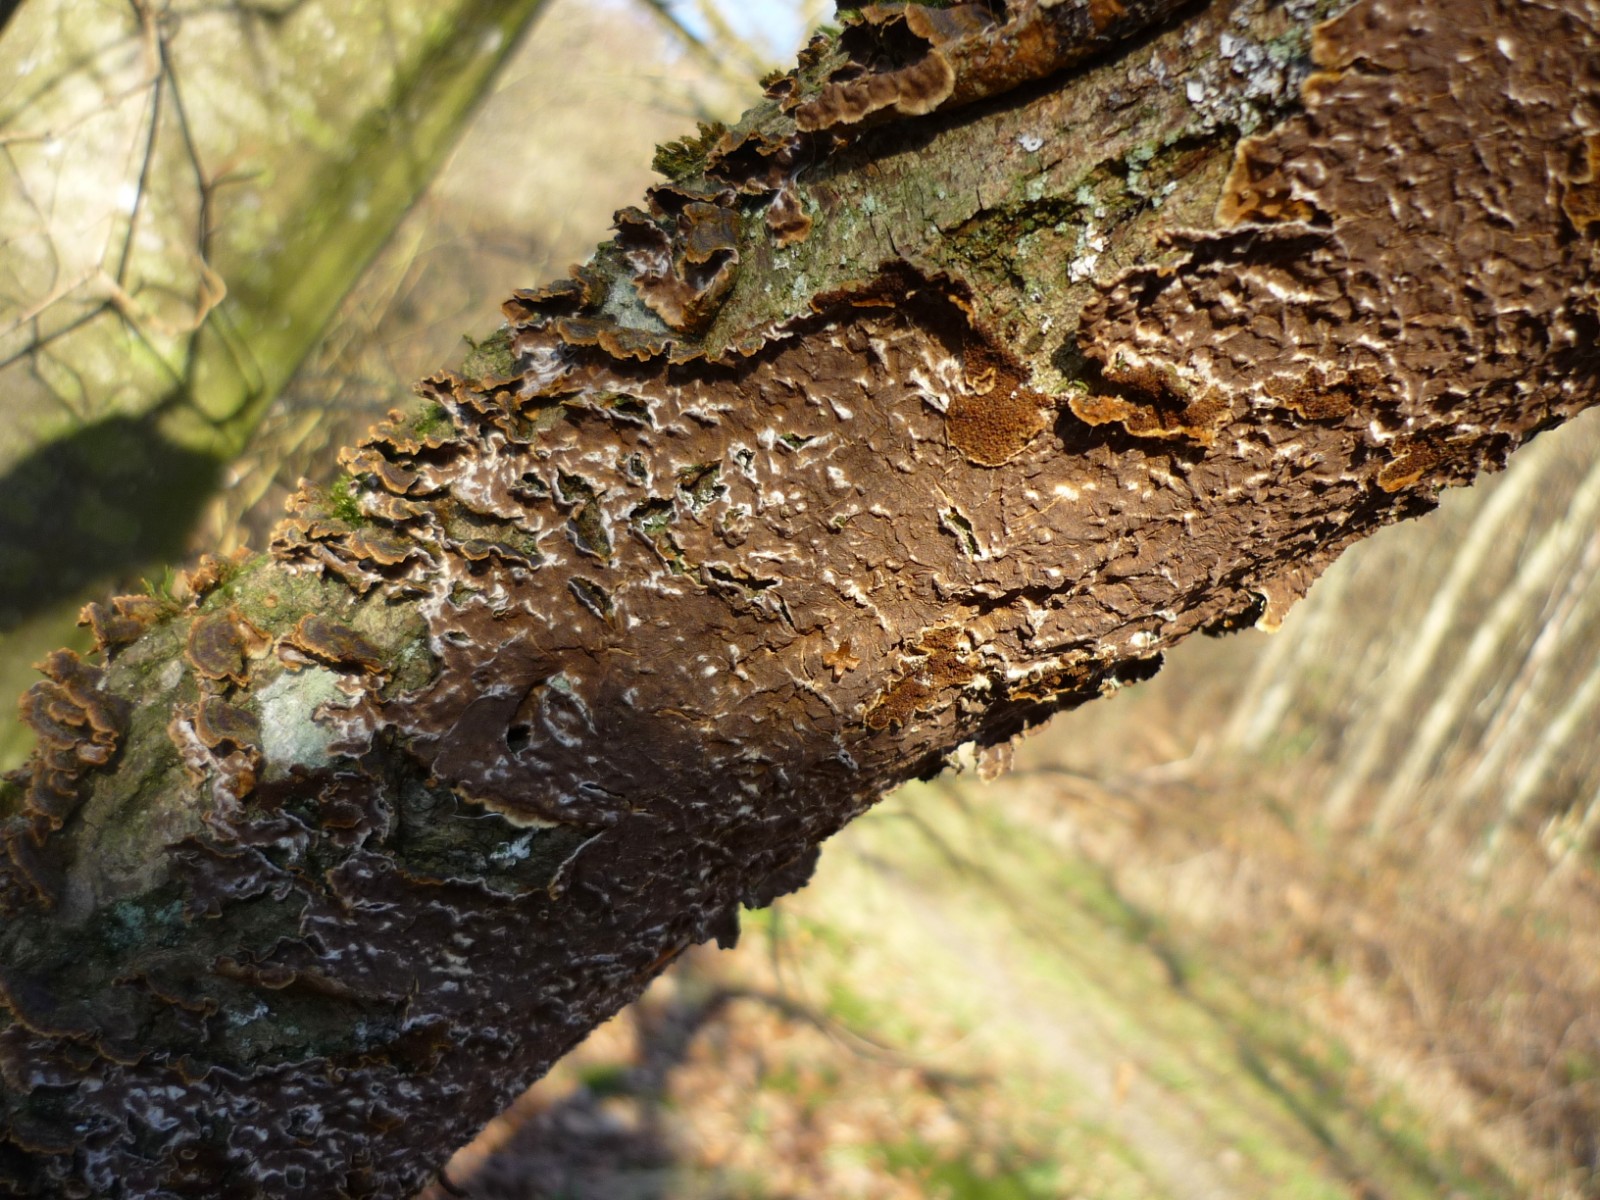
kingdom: Fungi
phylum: Basidiomycota
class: Agaricomycetes
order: Hymenochaetales
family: Hymenochaetaceae
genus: Hydnoporia
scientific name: Hydnoporia tabacina
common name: tobaksbrun ruslædersvamp
